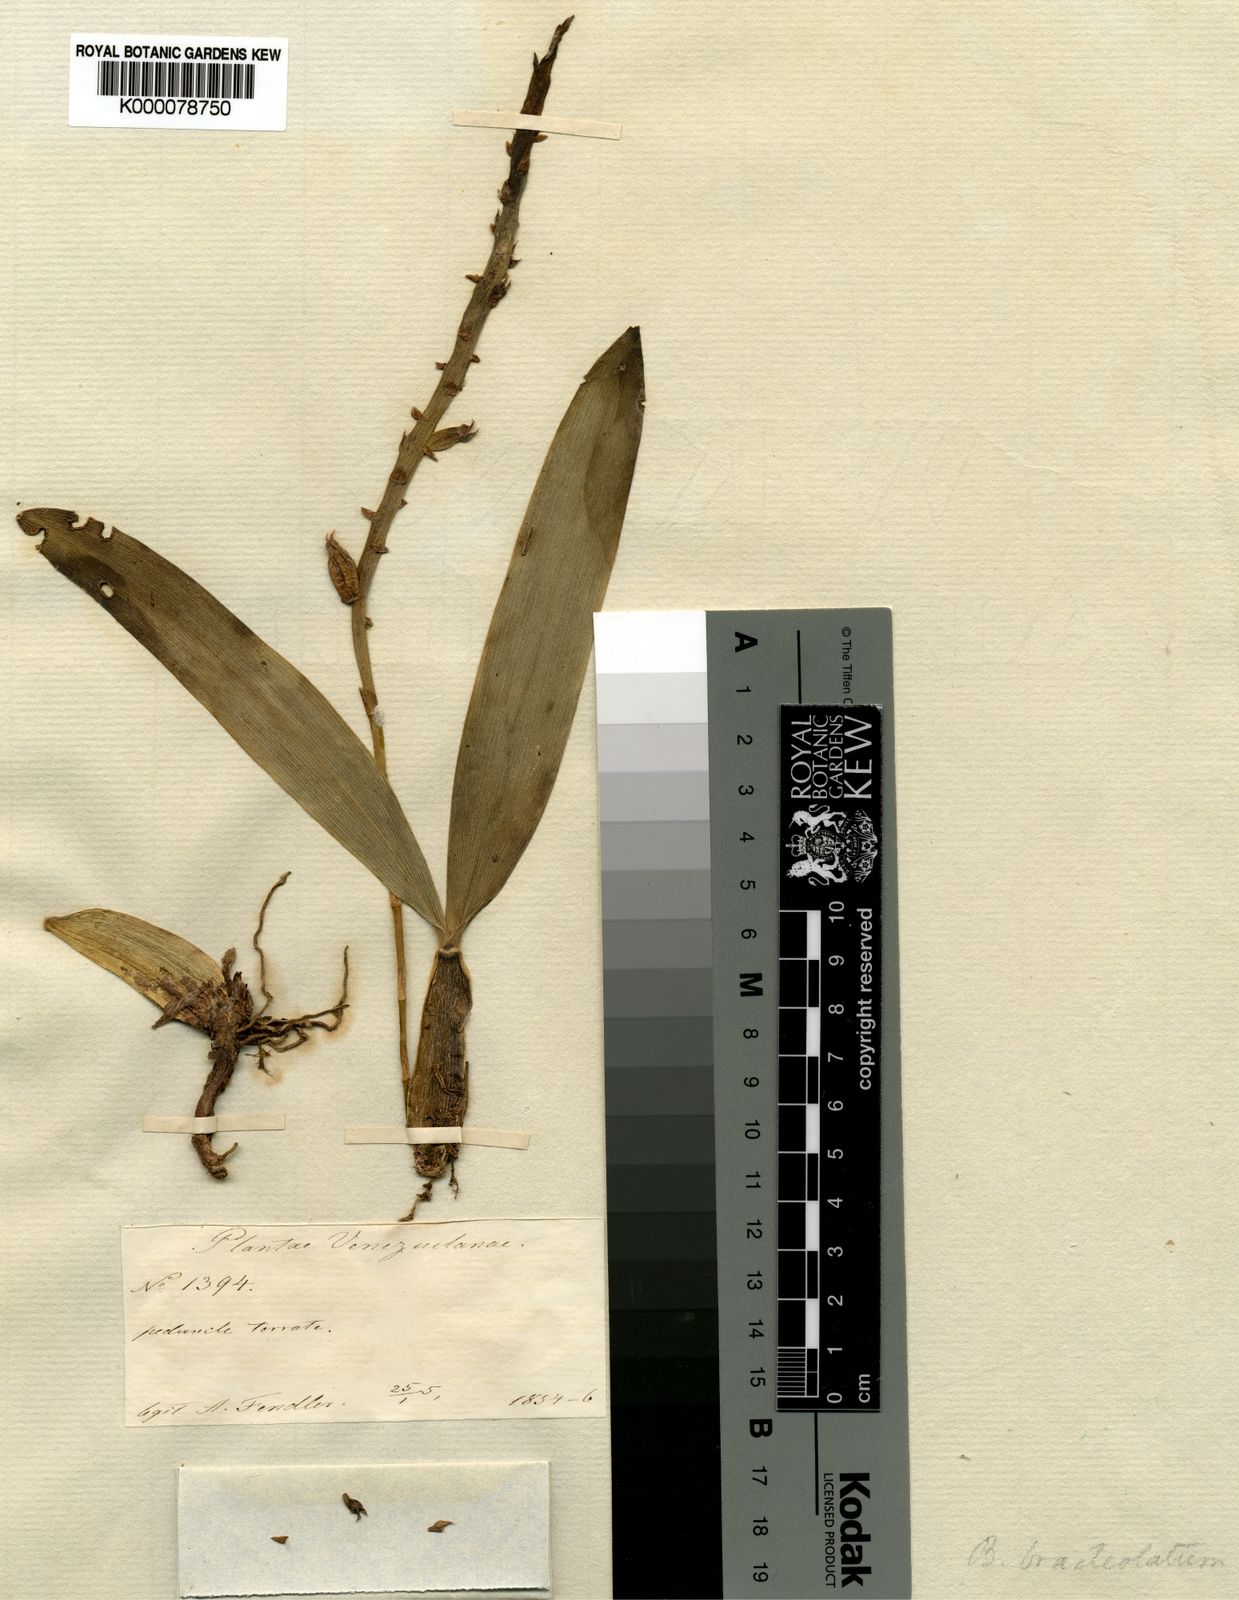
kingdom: Plantae
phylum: Tracheophyta
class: Liliopsida
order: Asparagales
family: Orchidaceae
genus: Bulbophyllum
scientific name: Bulbophyllum bracteolatum
